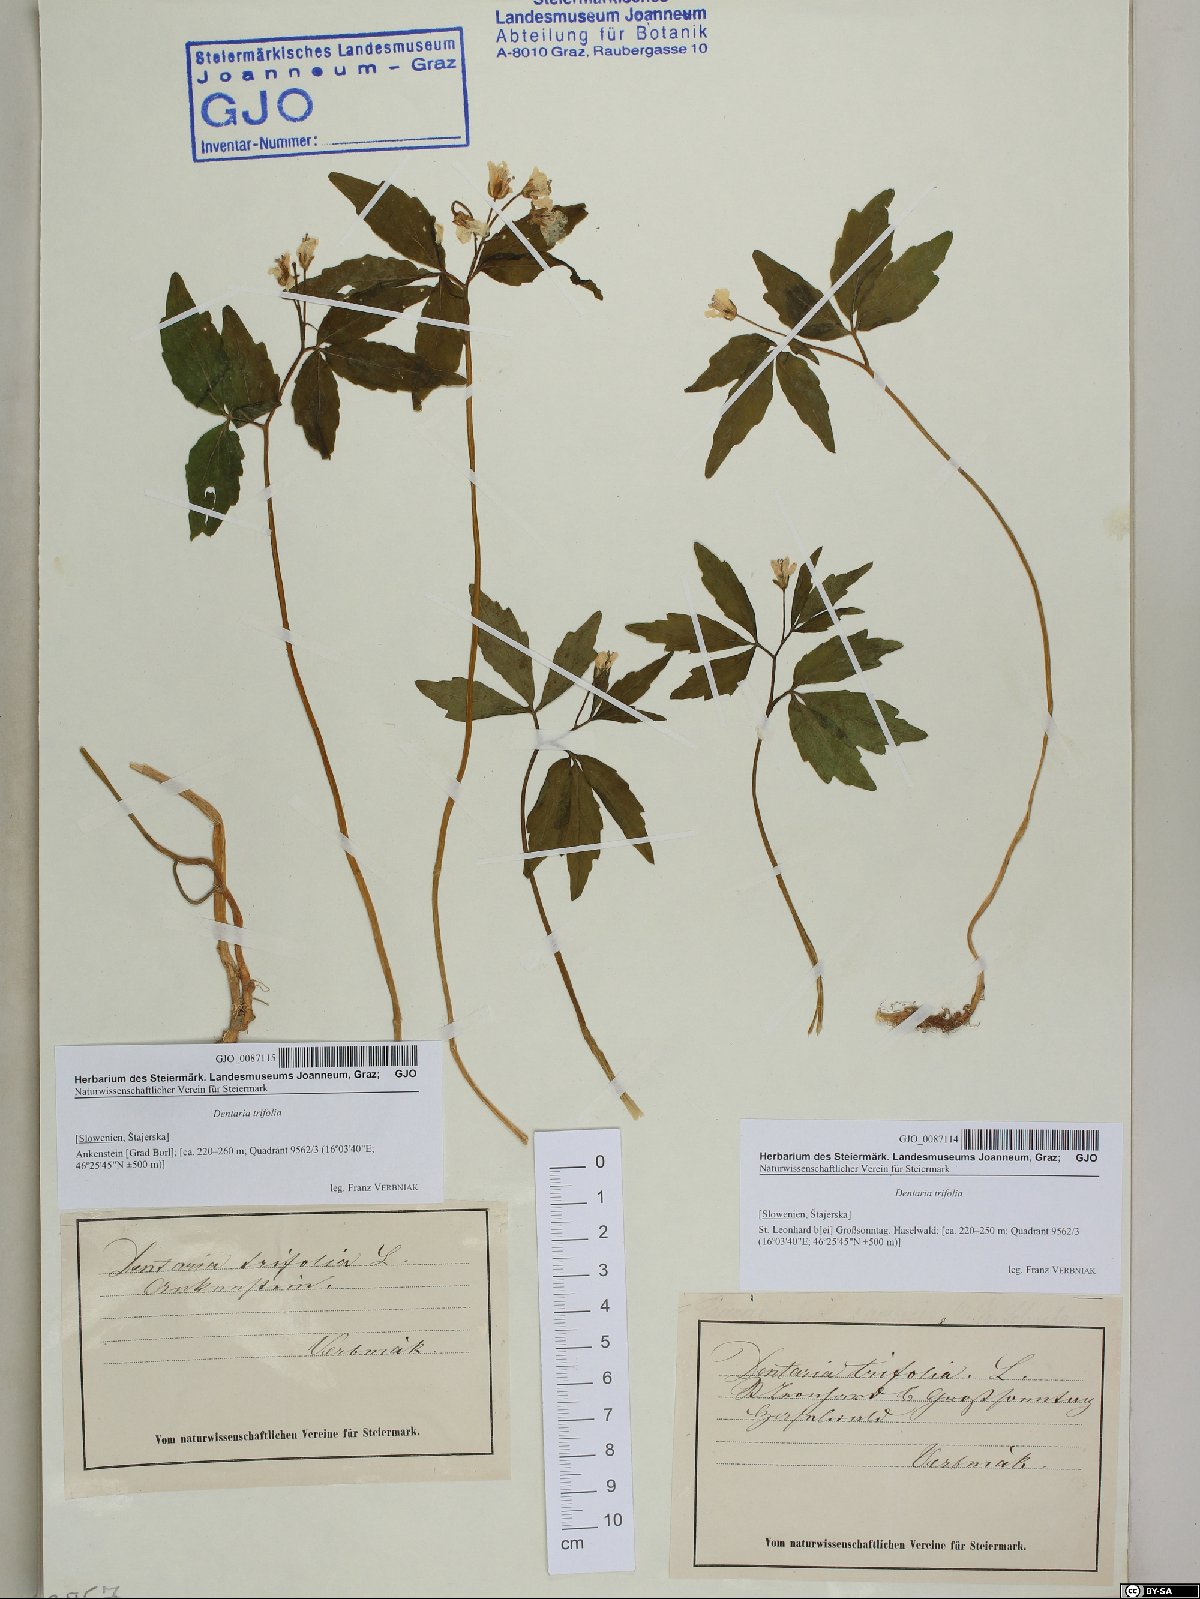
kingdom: Plantae
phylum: Tracheophyta
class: Magnoliopsida
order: Brassicales
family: Brassicaceae
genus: Cardamine
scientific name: Cardamine waldsteinii
